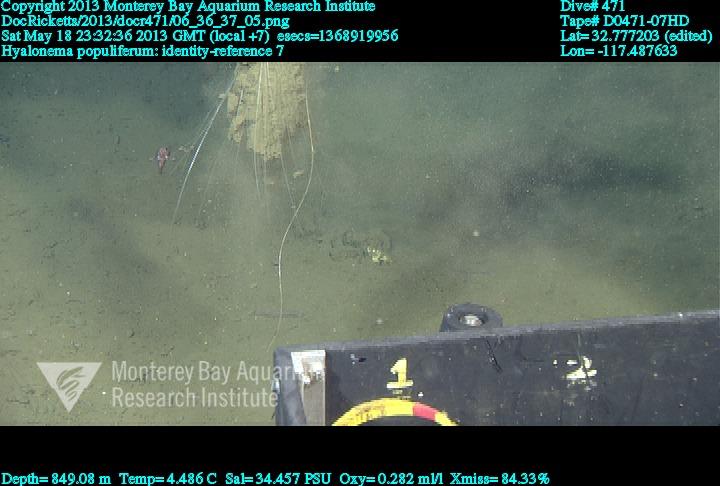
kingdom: Animalia
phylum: Porifera
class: Hexactinellida
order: Amphidiscosida
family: Hyalonematidae
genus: Hyalonema
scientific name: Hyalonema populiferum
